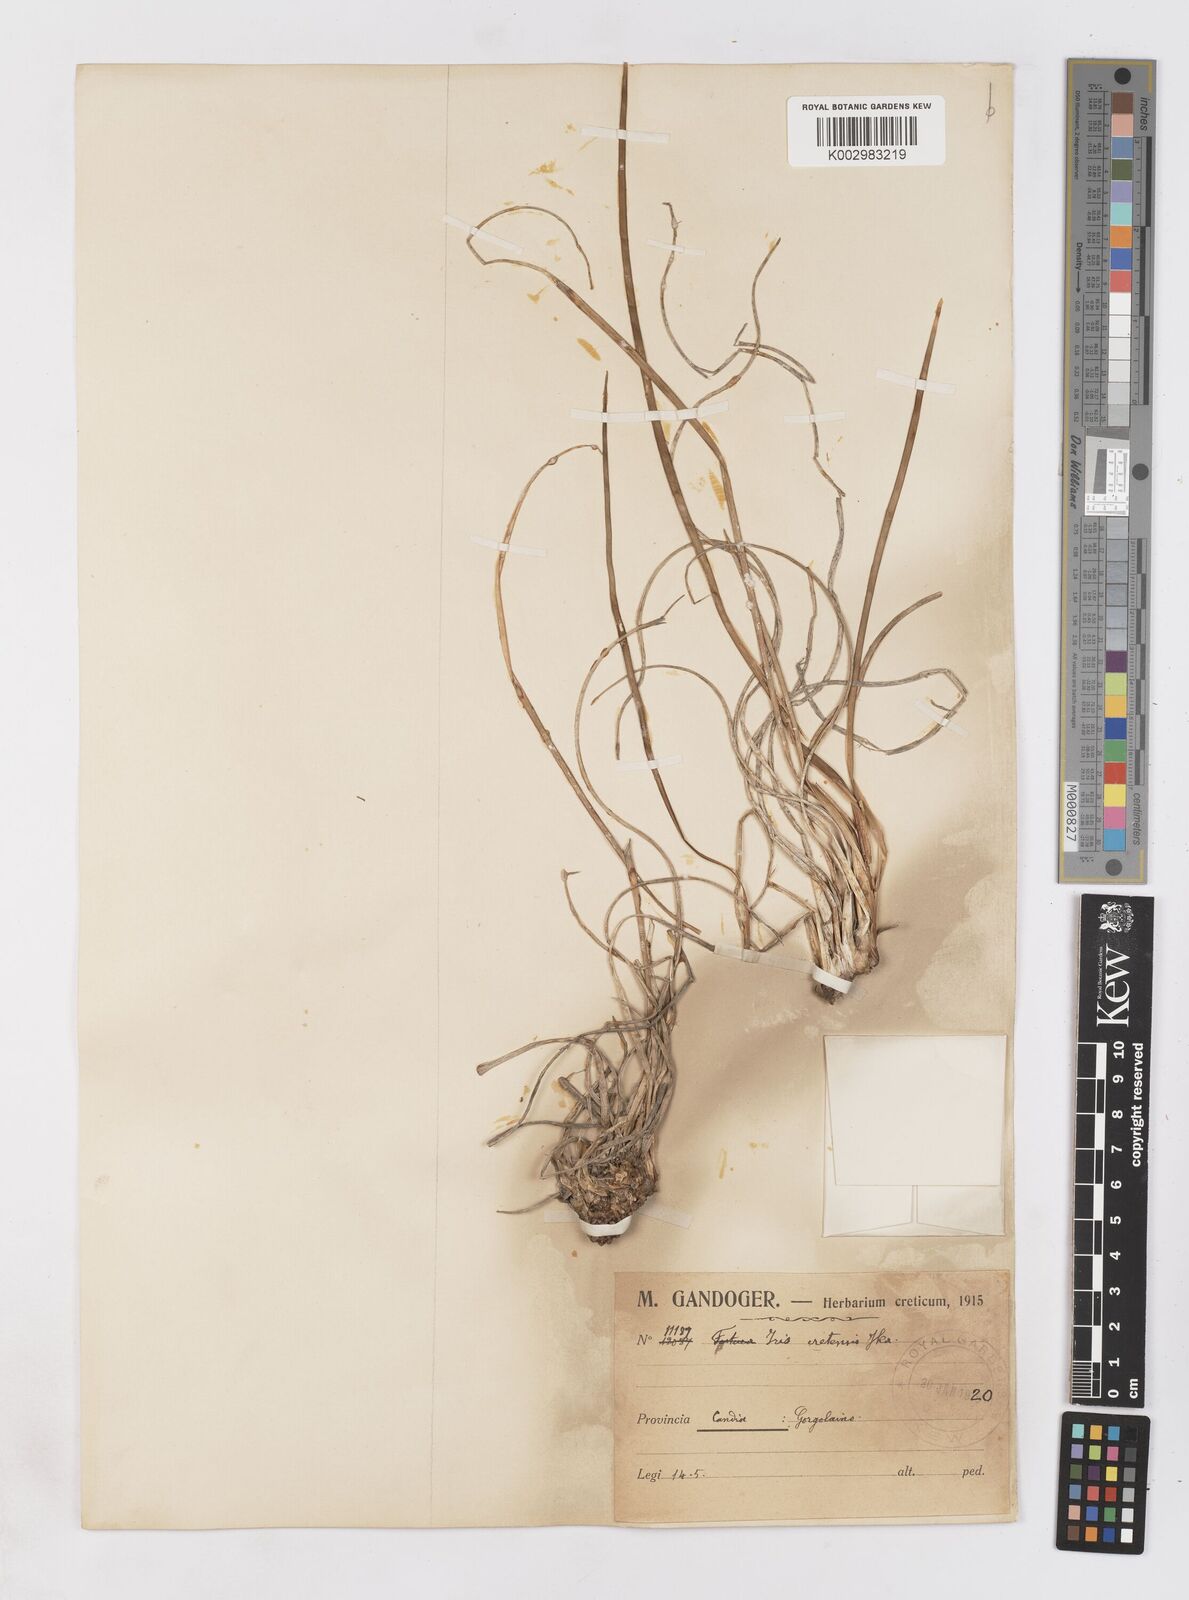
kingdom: Plantae
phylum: Tracheophyta
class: Liliopsida
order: Asparagales
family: Iridaceae
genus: Iris
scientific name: Iris unguicularis
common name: Algerian iris
